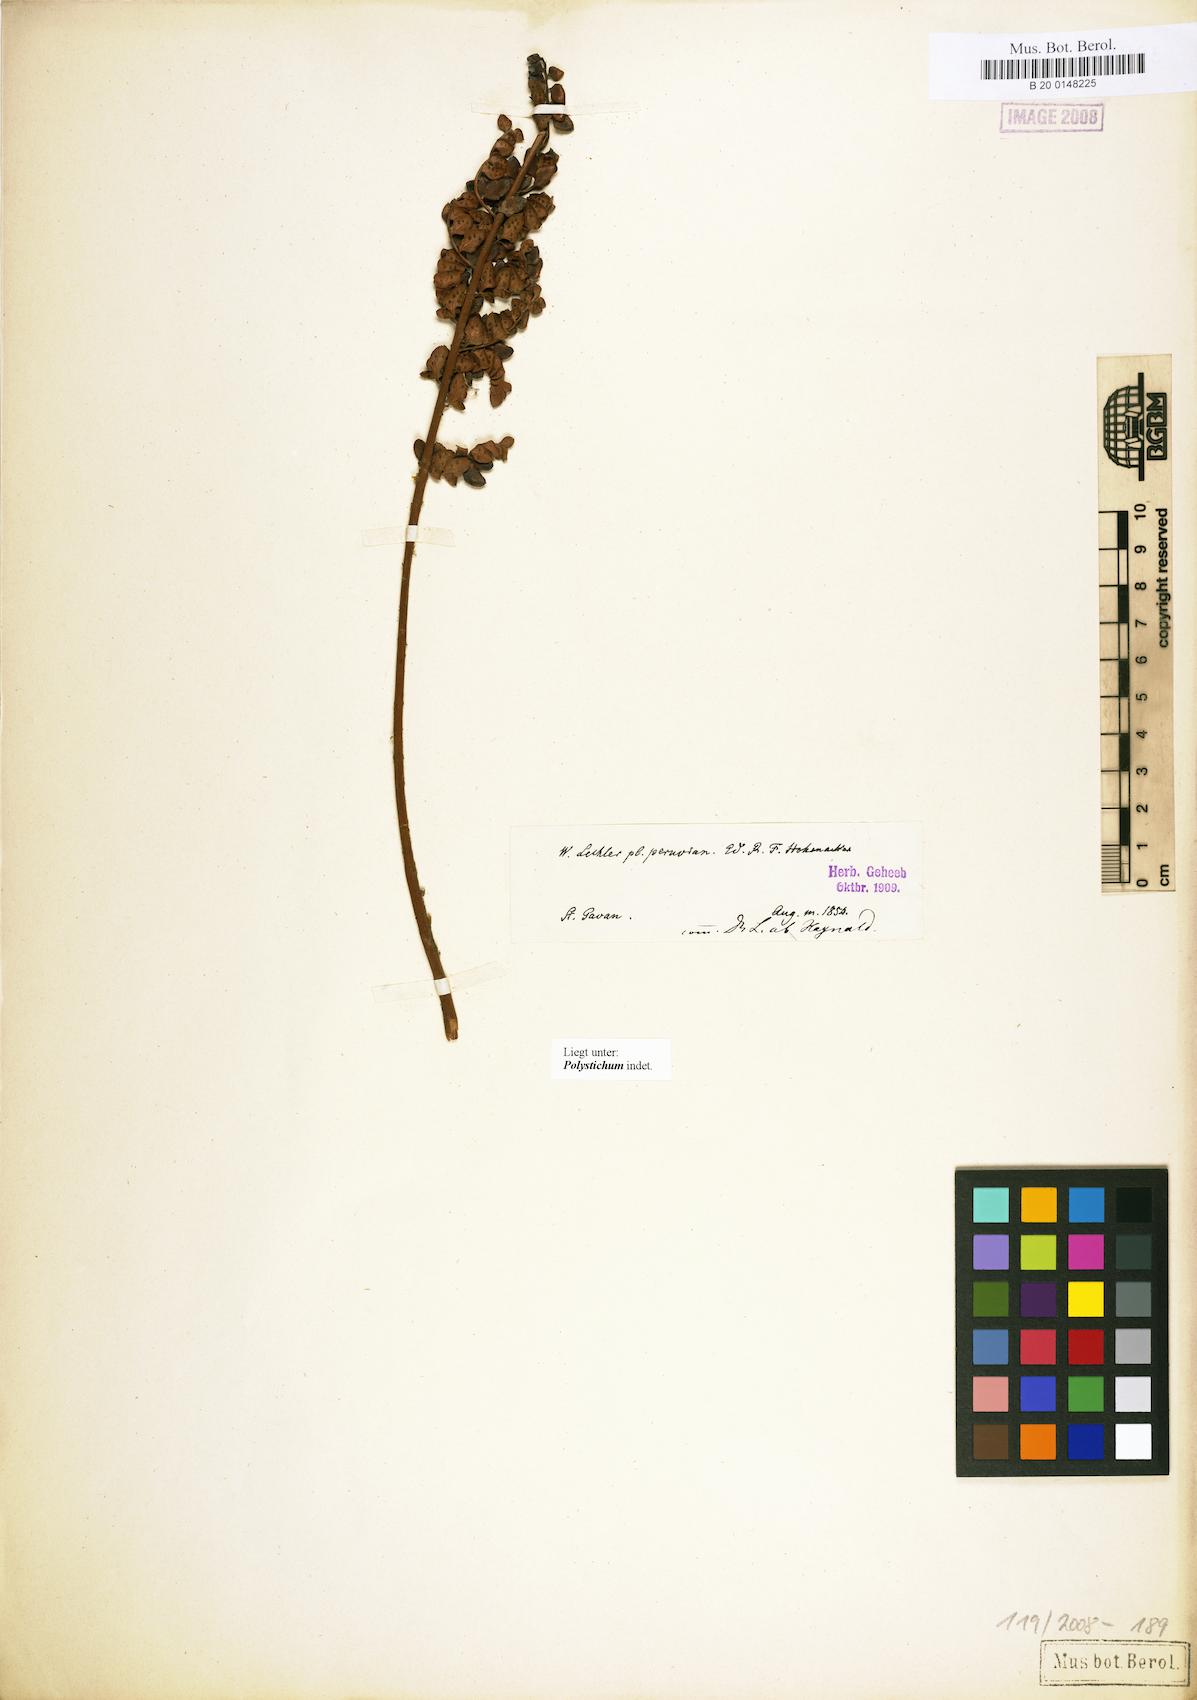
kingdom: Plantae
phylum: Tracheophyta
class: Polypodiopsida
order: Polypodiales
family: Dryopteridaceae
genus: Polystichum
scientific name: Polystichum
